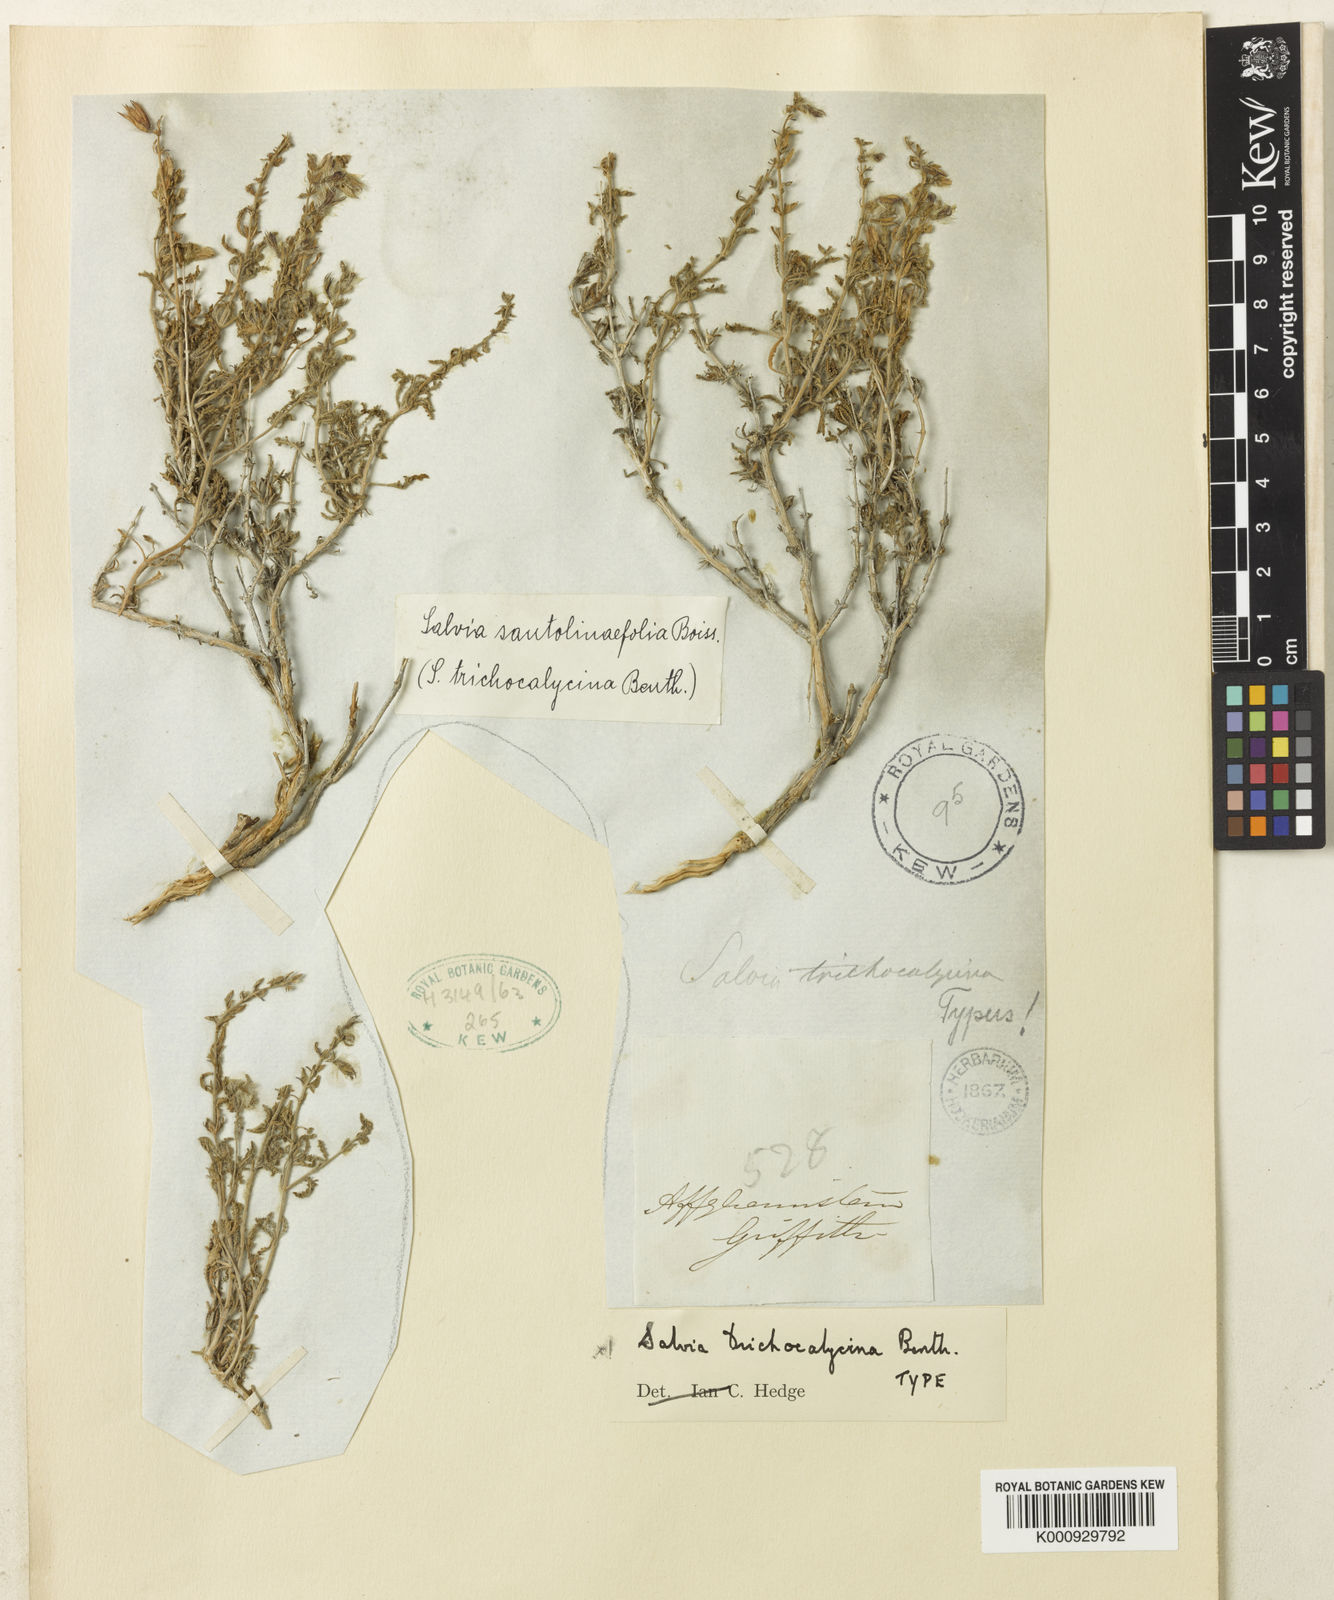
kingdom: Plantae
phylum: Tracheophyta
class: Magnoliopsida
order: Lamiales
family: Lamiaceae
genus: Salvia
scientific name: Salvia trichocalycina
